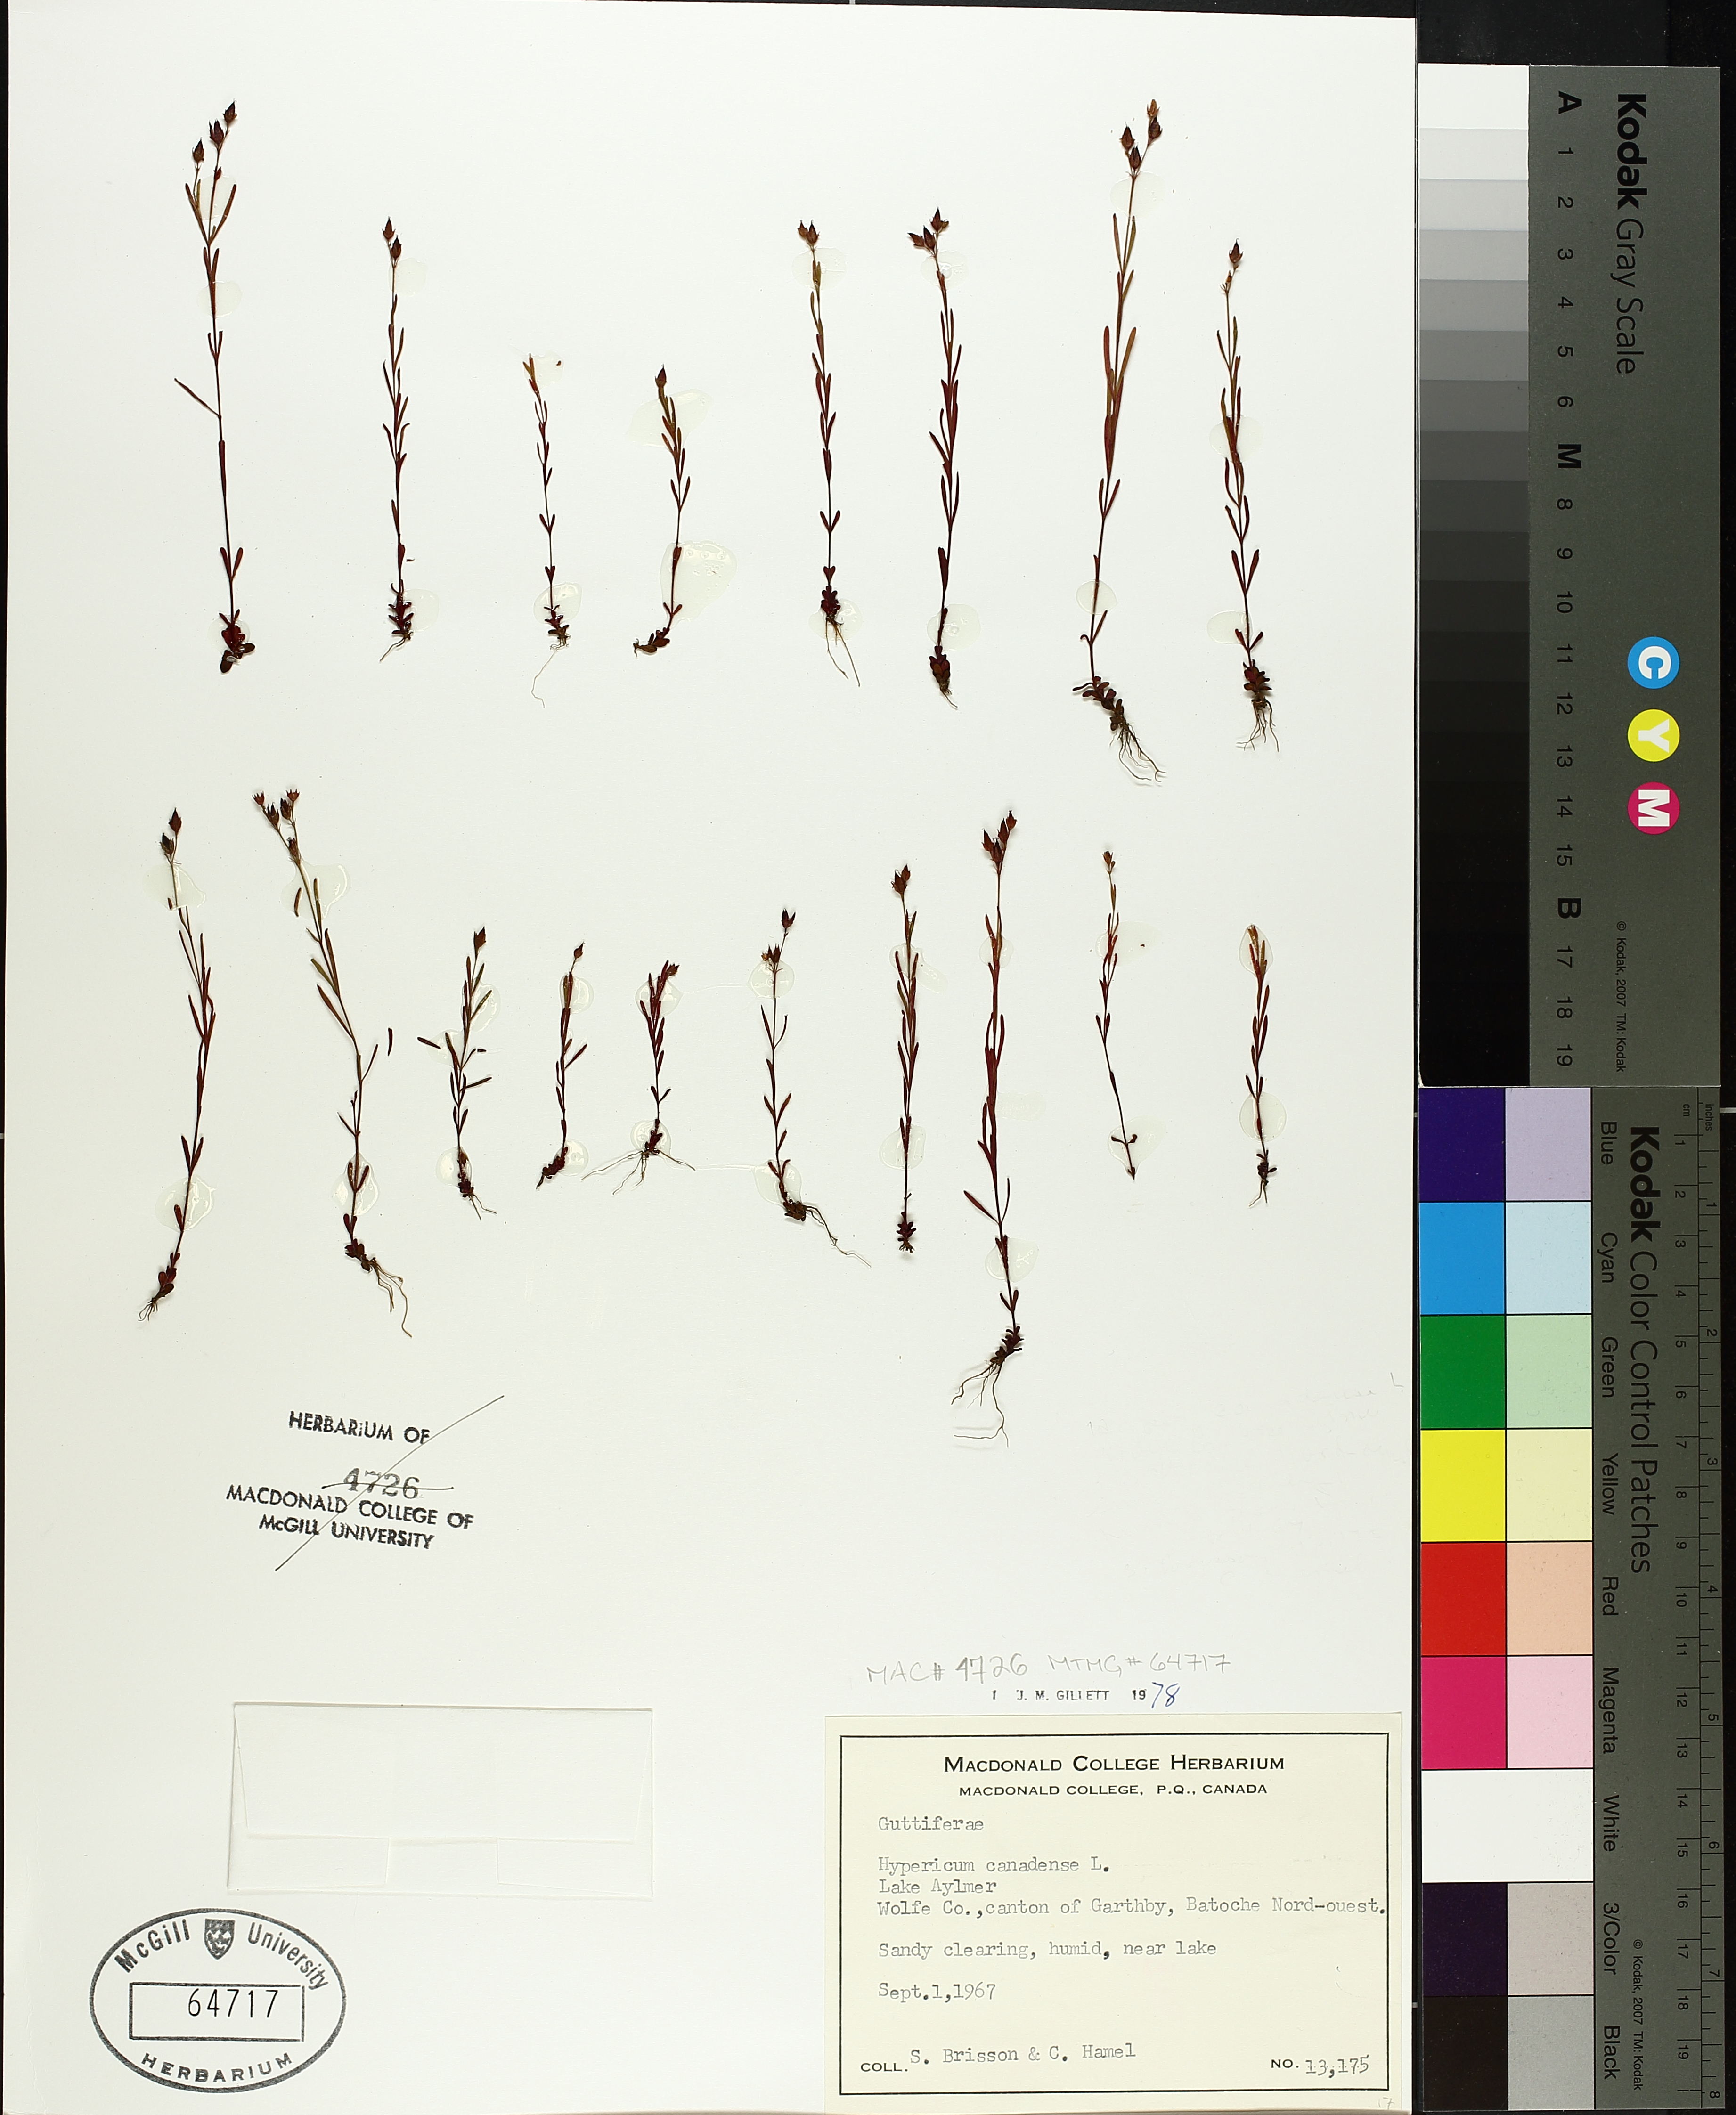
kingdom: Plantae
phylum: Tracheophyta
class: Magnoliopsida
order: Malpighiales
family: Hypericaceae
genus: Hypericum
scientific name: Hypericum canadense
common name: Irish st. john's-wort
